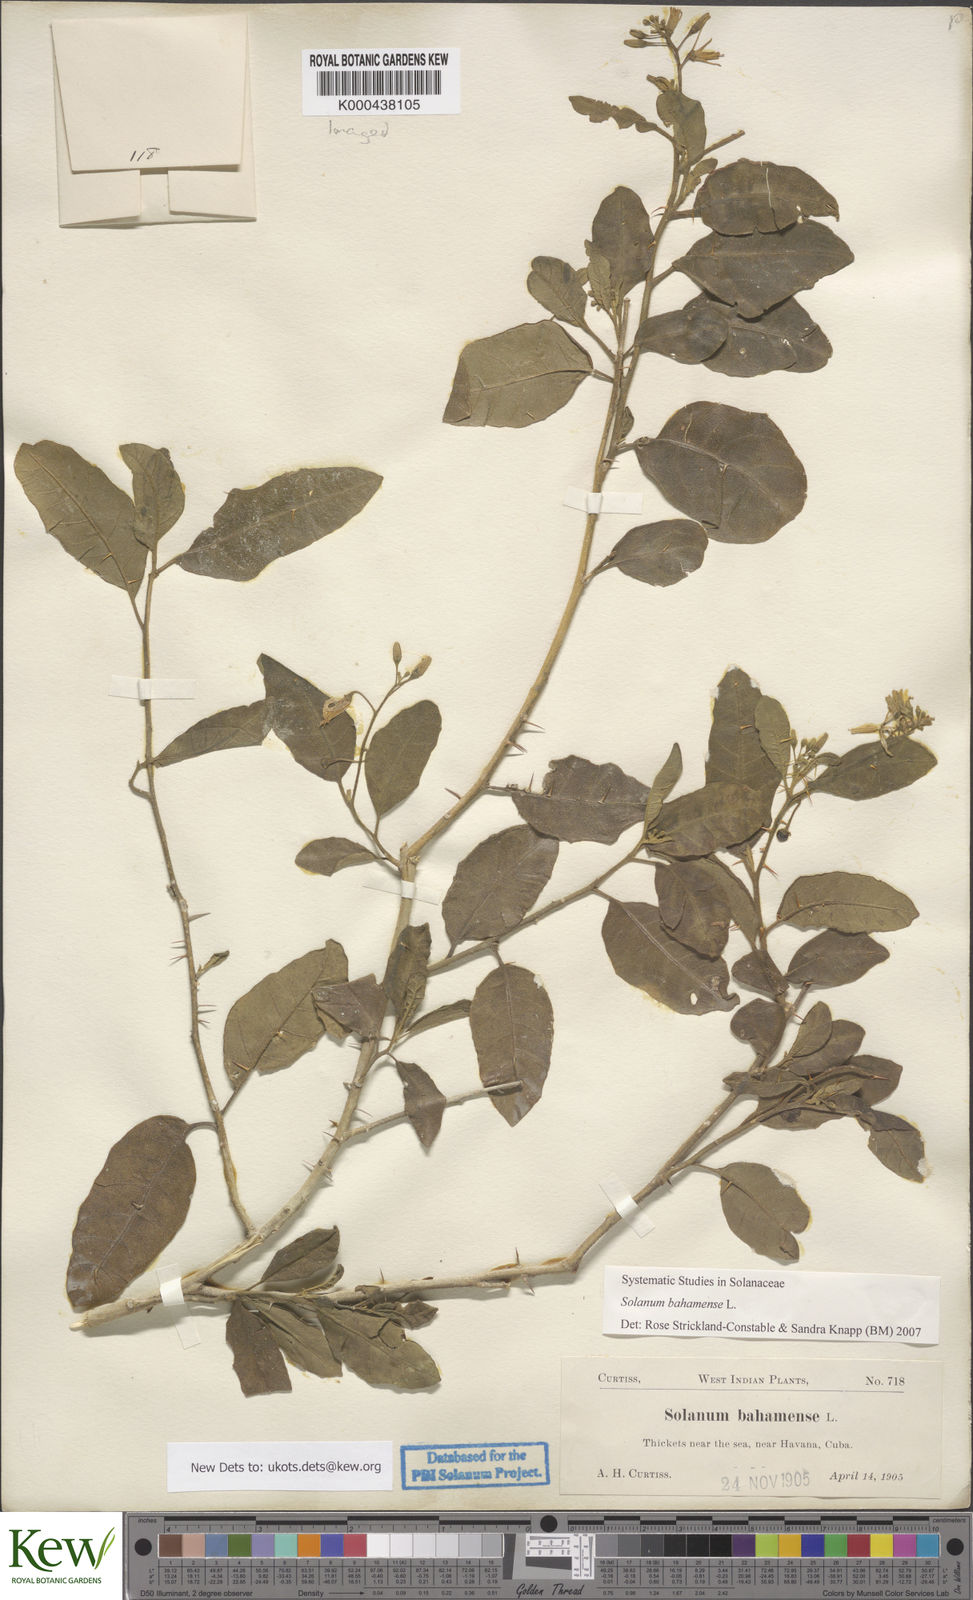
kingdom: Plantae
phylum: Tracheophyta
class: Magnoliopsida
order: Solanales
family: Solanaceae
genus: Solanum
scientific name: Solanum bahamense
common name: Canker-berry
